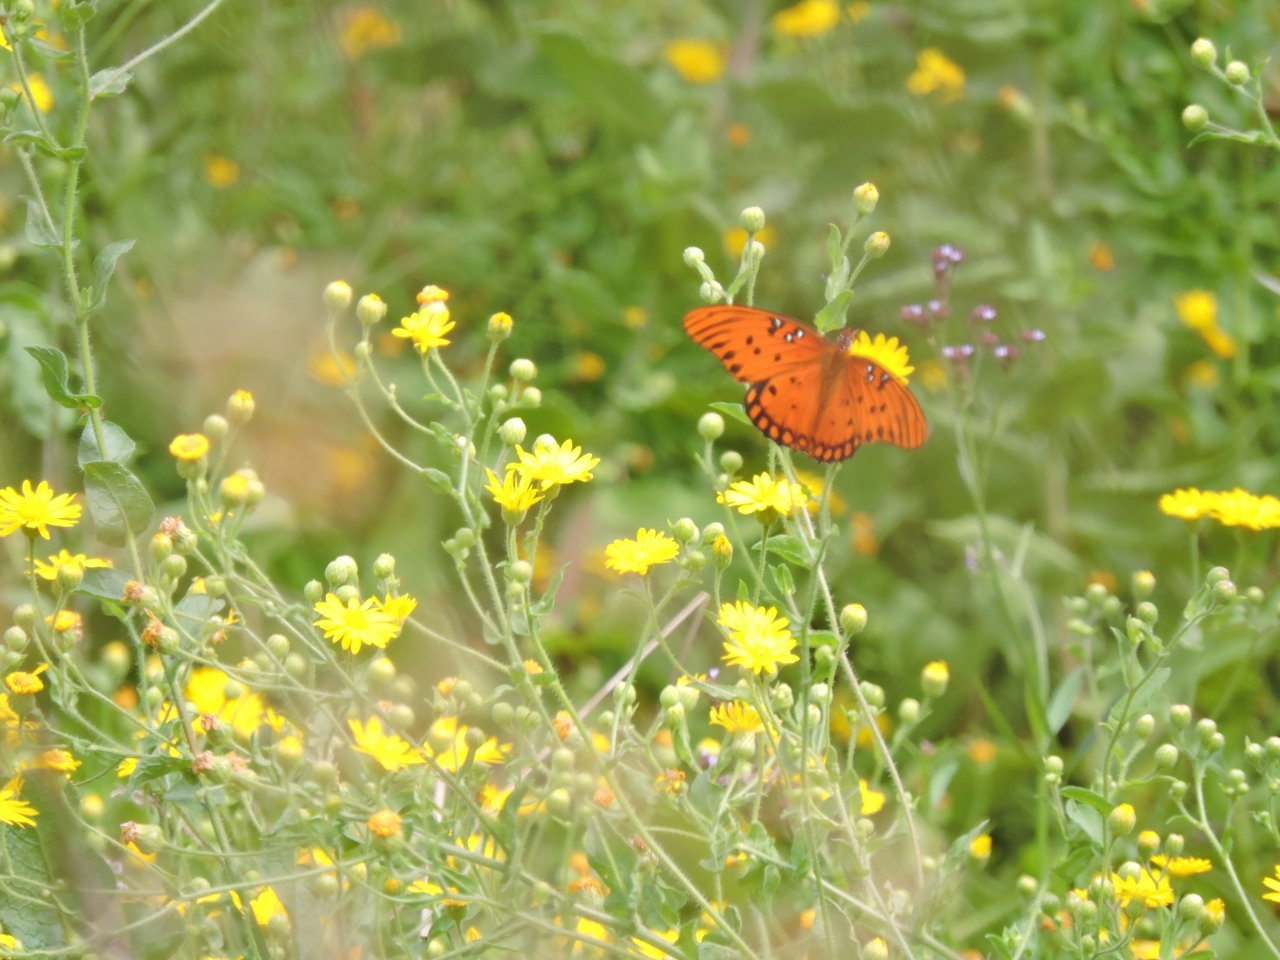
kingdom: Animalia
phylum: Arthropoda
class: Insecta
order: Lepidoptera
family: Nymphalidae
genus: Dione
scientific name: Dione vanillae
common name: Gulf Fritillary
